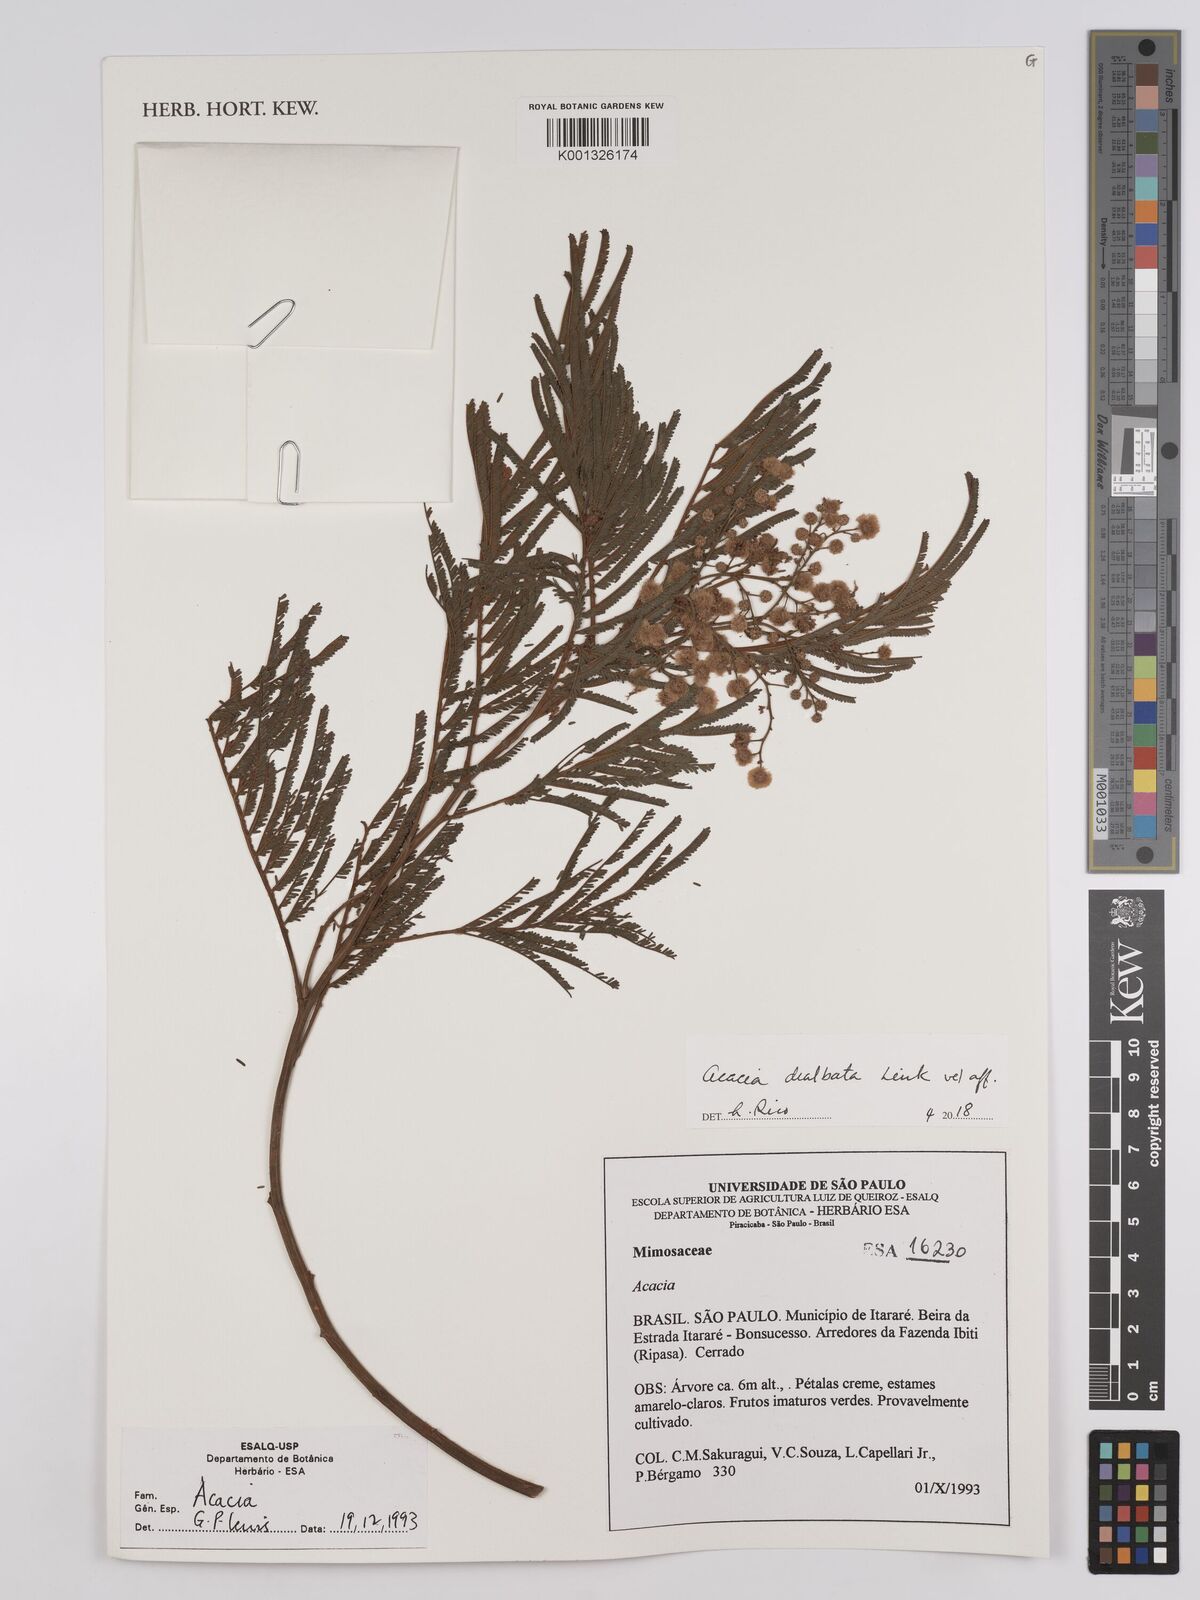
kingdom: Plantae
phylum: Tracheophyta
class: Magnoliopsida
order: Fabales
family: Fabaceae
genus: Acacia
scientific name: Acacia leucolobia
